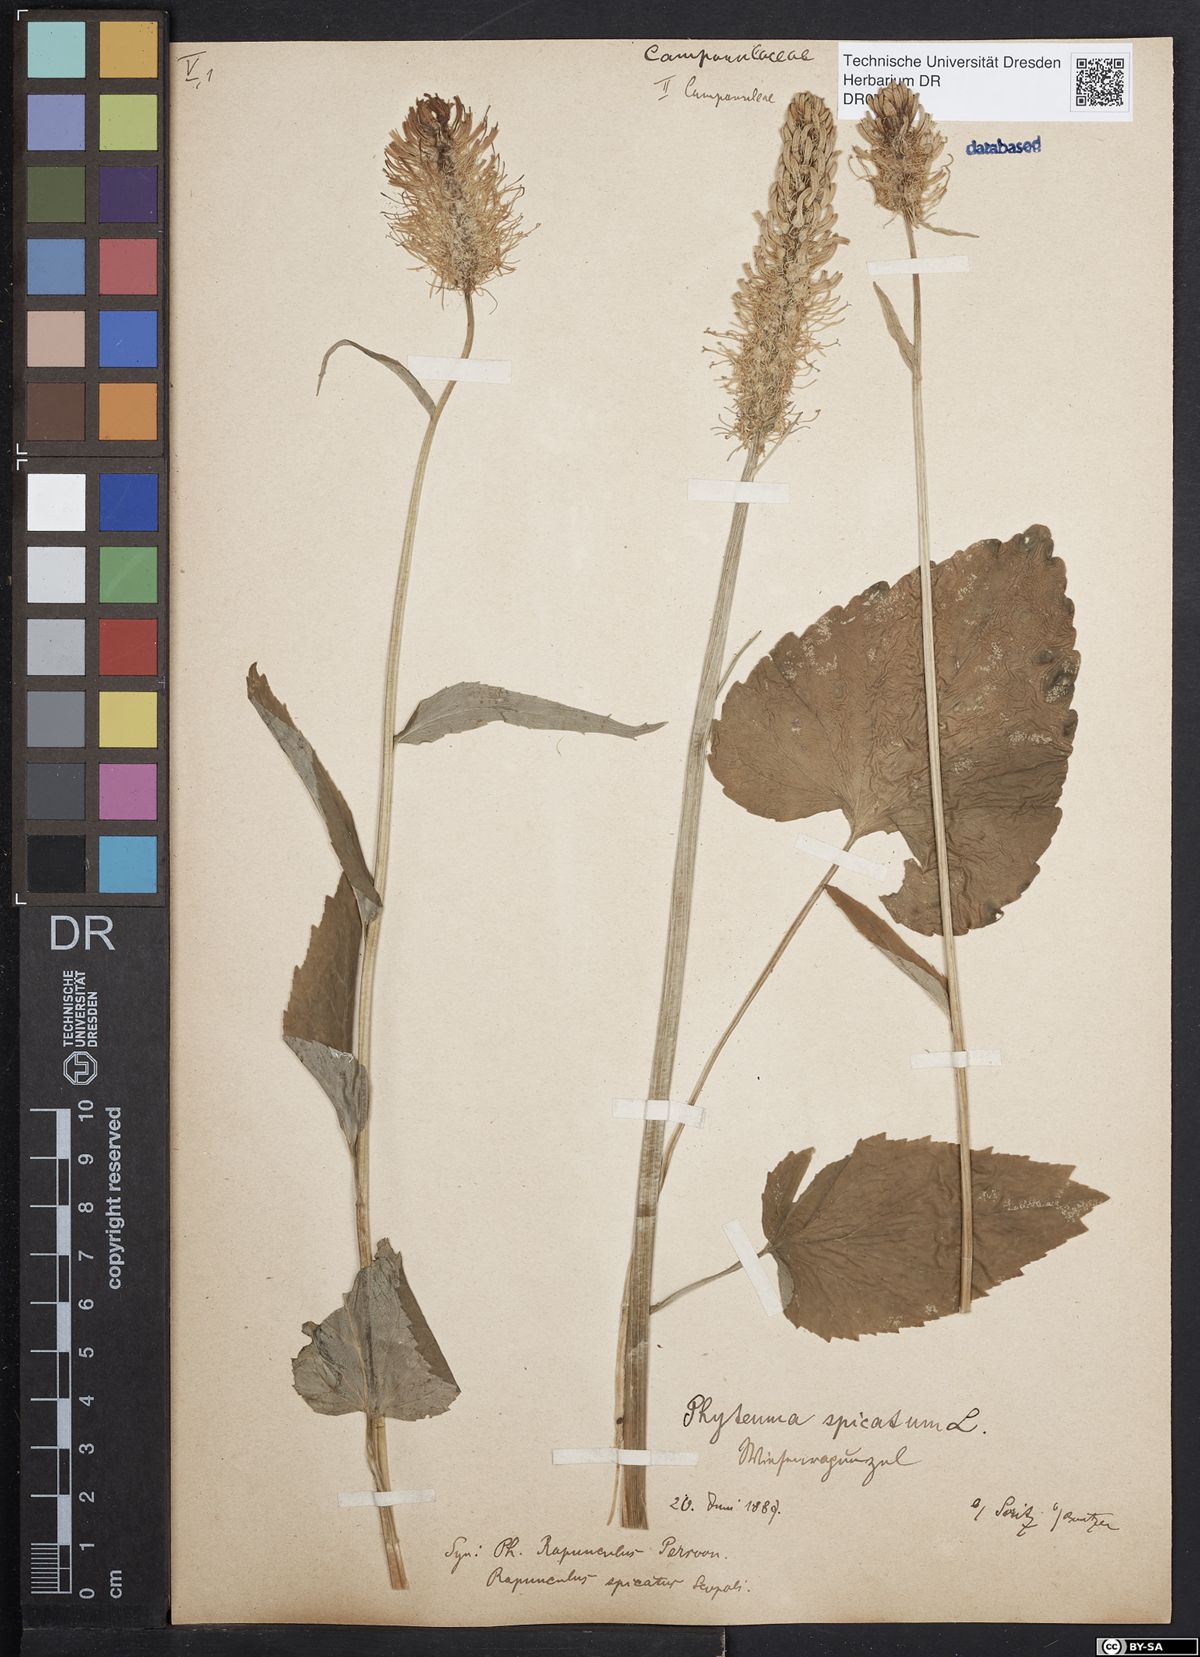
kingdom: Plantae
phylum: Tracheophyta
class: Magnoliopsida
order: Asterales
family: Campanulaceae
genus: Phyteuma
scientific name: Phyteuma spicatum
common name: Spiked rampion
